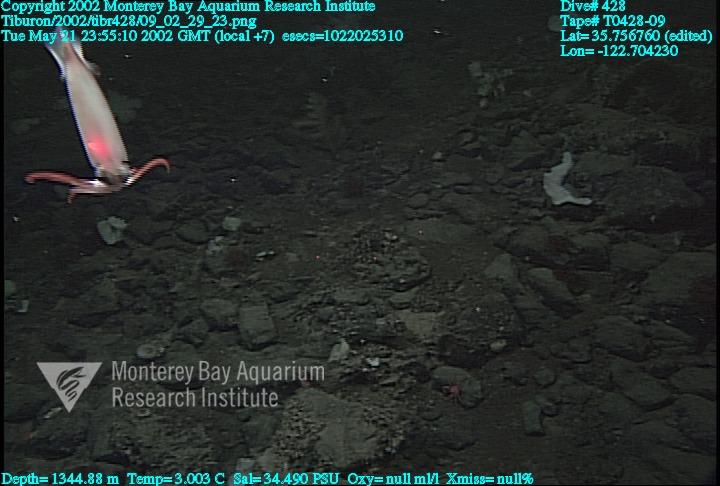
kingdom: Animalia
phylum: Porifera
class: Hexactinellida
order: Sceptrulophora
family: Euretidae
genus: Chonelasma
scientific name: Chonelasma
